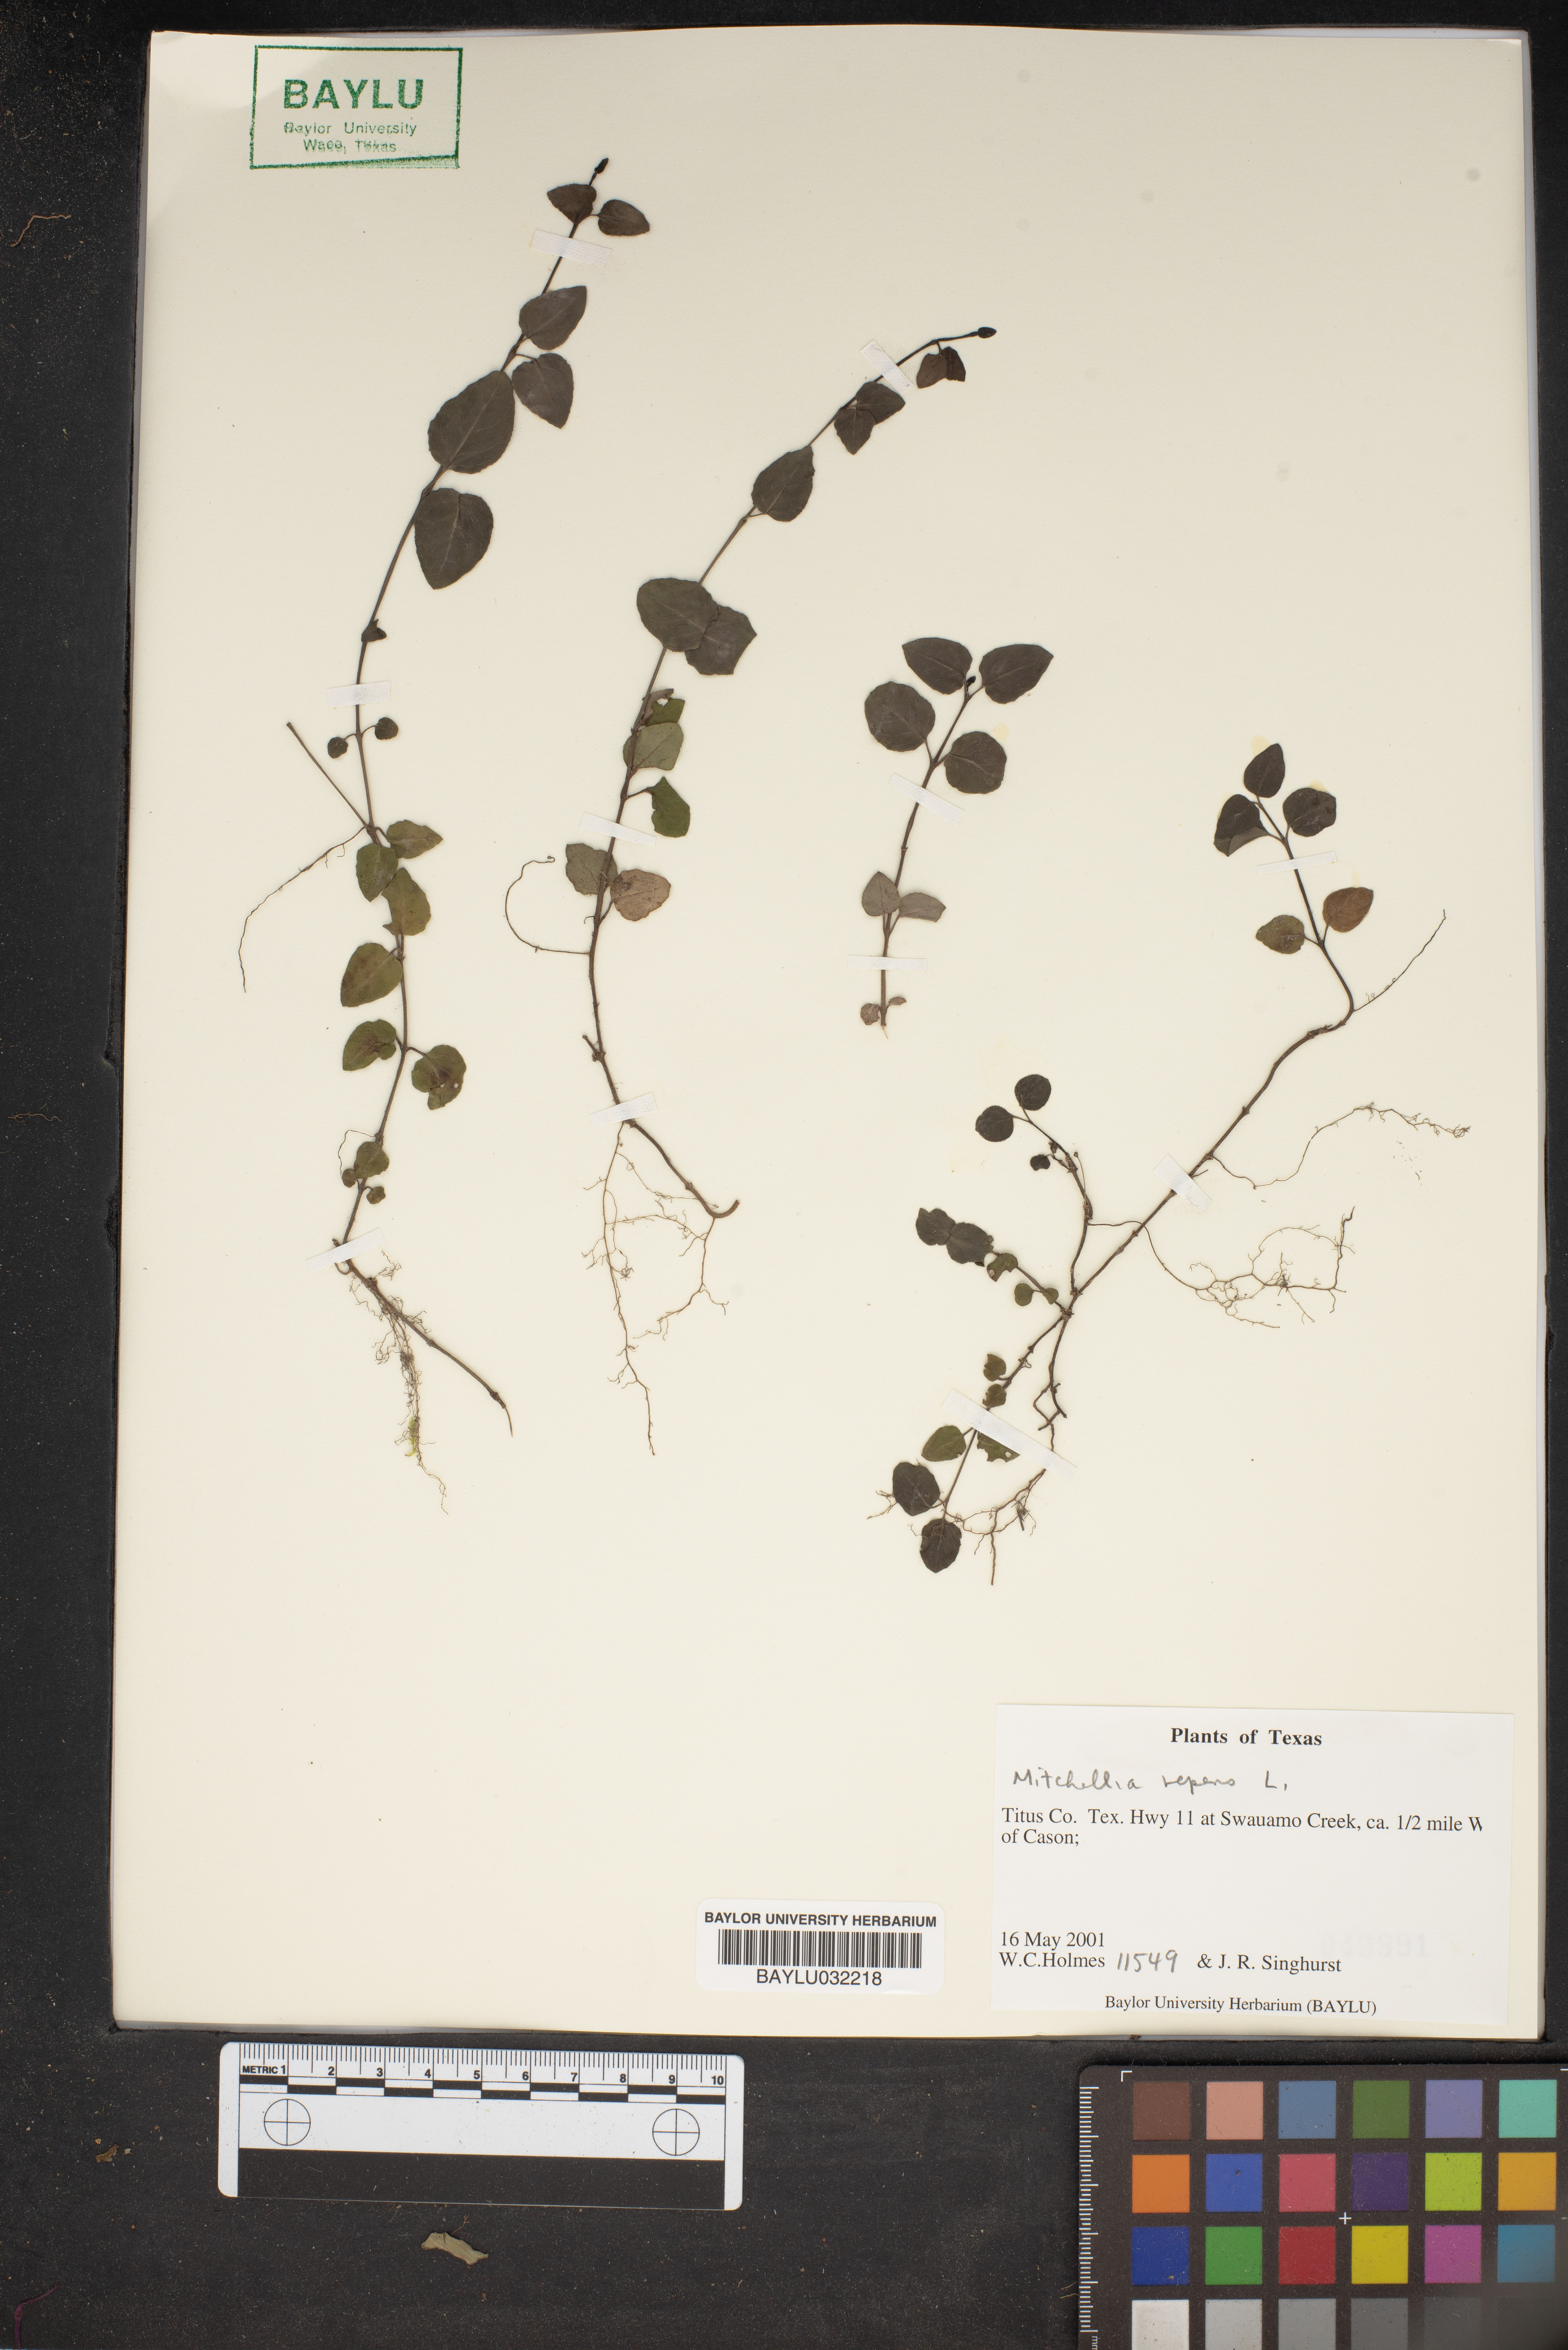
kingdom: Plantae
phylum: Tracheophyta
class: Magnoliopsida
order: Gentianales
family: Rubiaceae
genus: Mitchella
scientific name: Mitchella repens
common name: Partridge-berry
